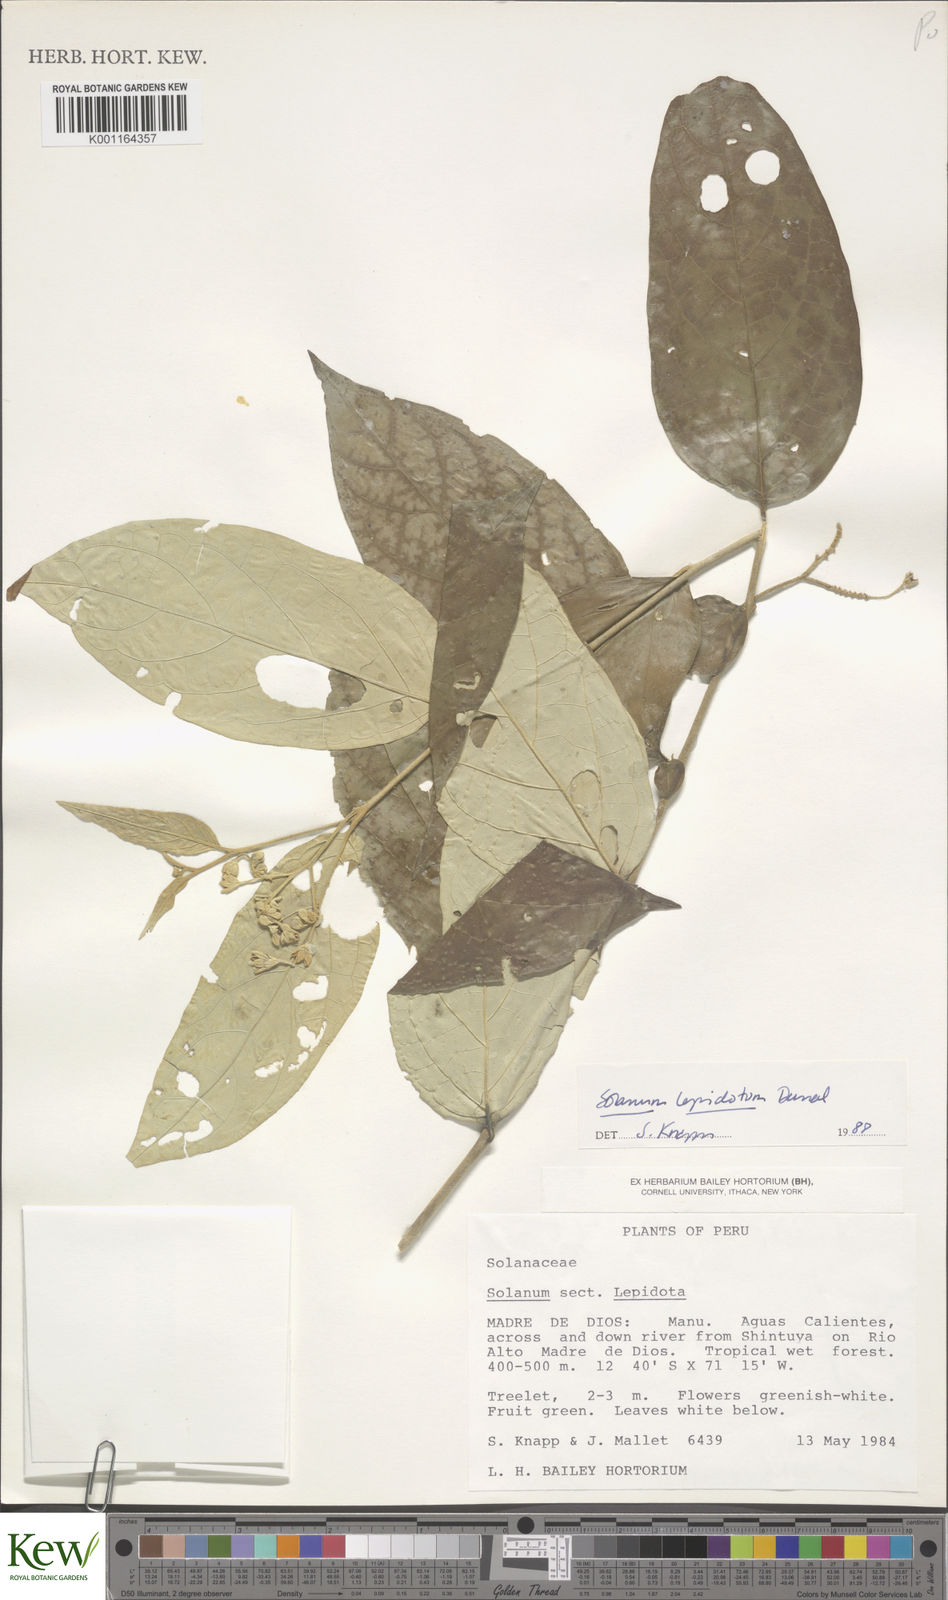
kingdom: Plantae
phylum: Tracheophyta
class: Magnoliopsida
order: Solanales
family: Solanaceae
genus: Solanum
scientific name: Solanum lepidotum
